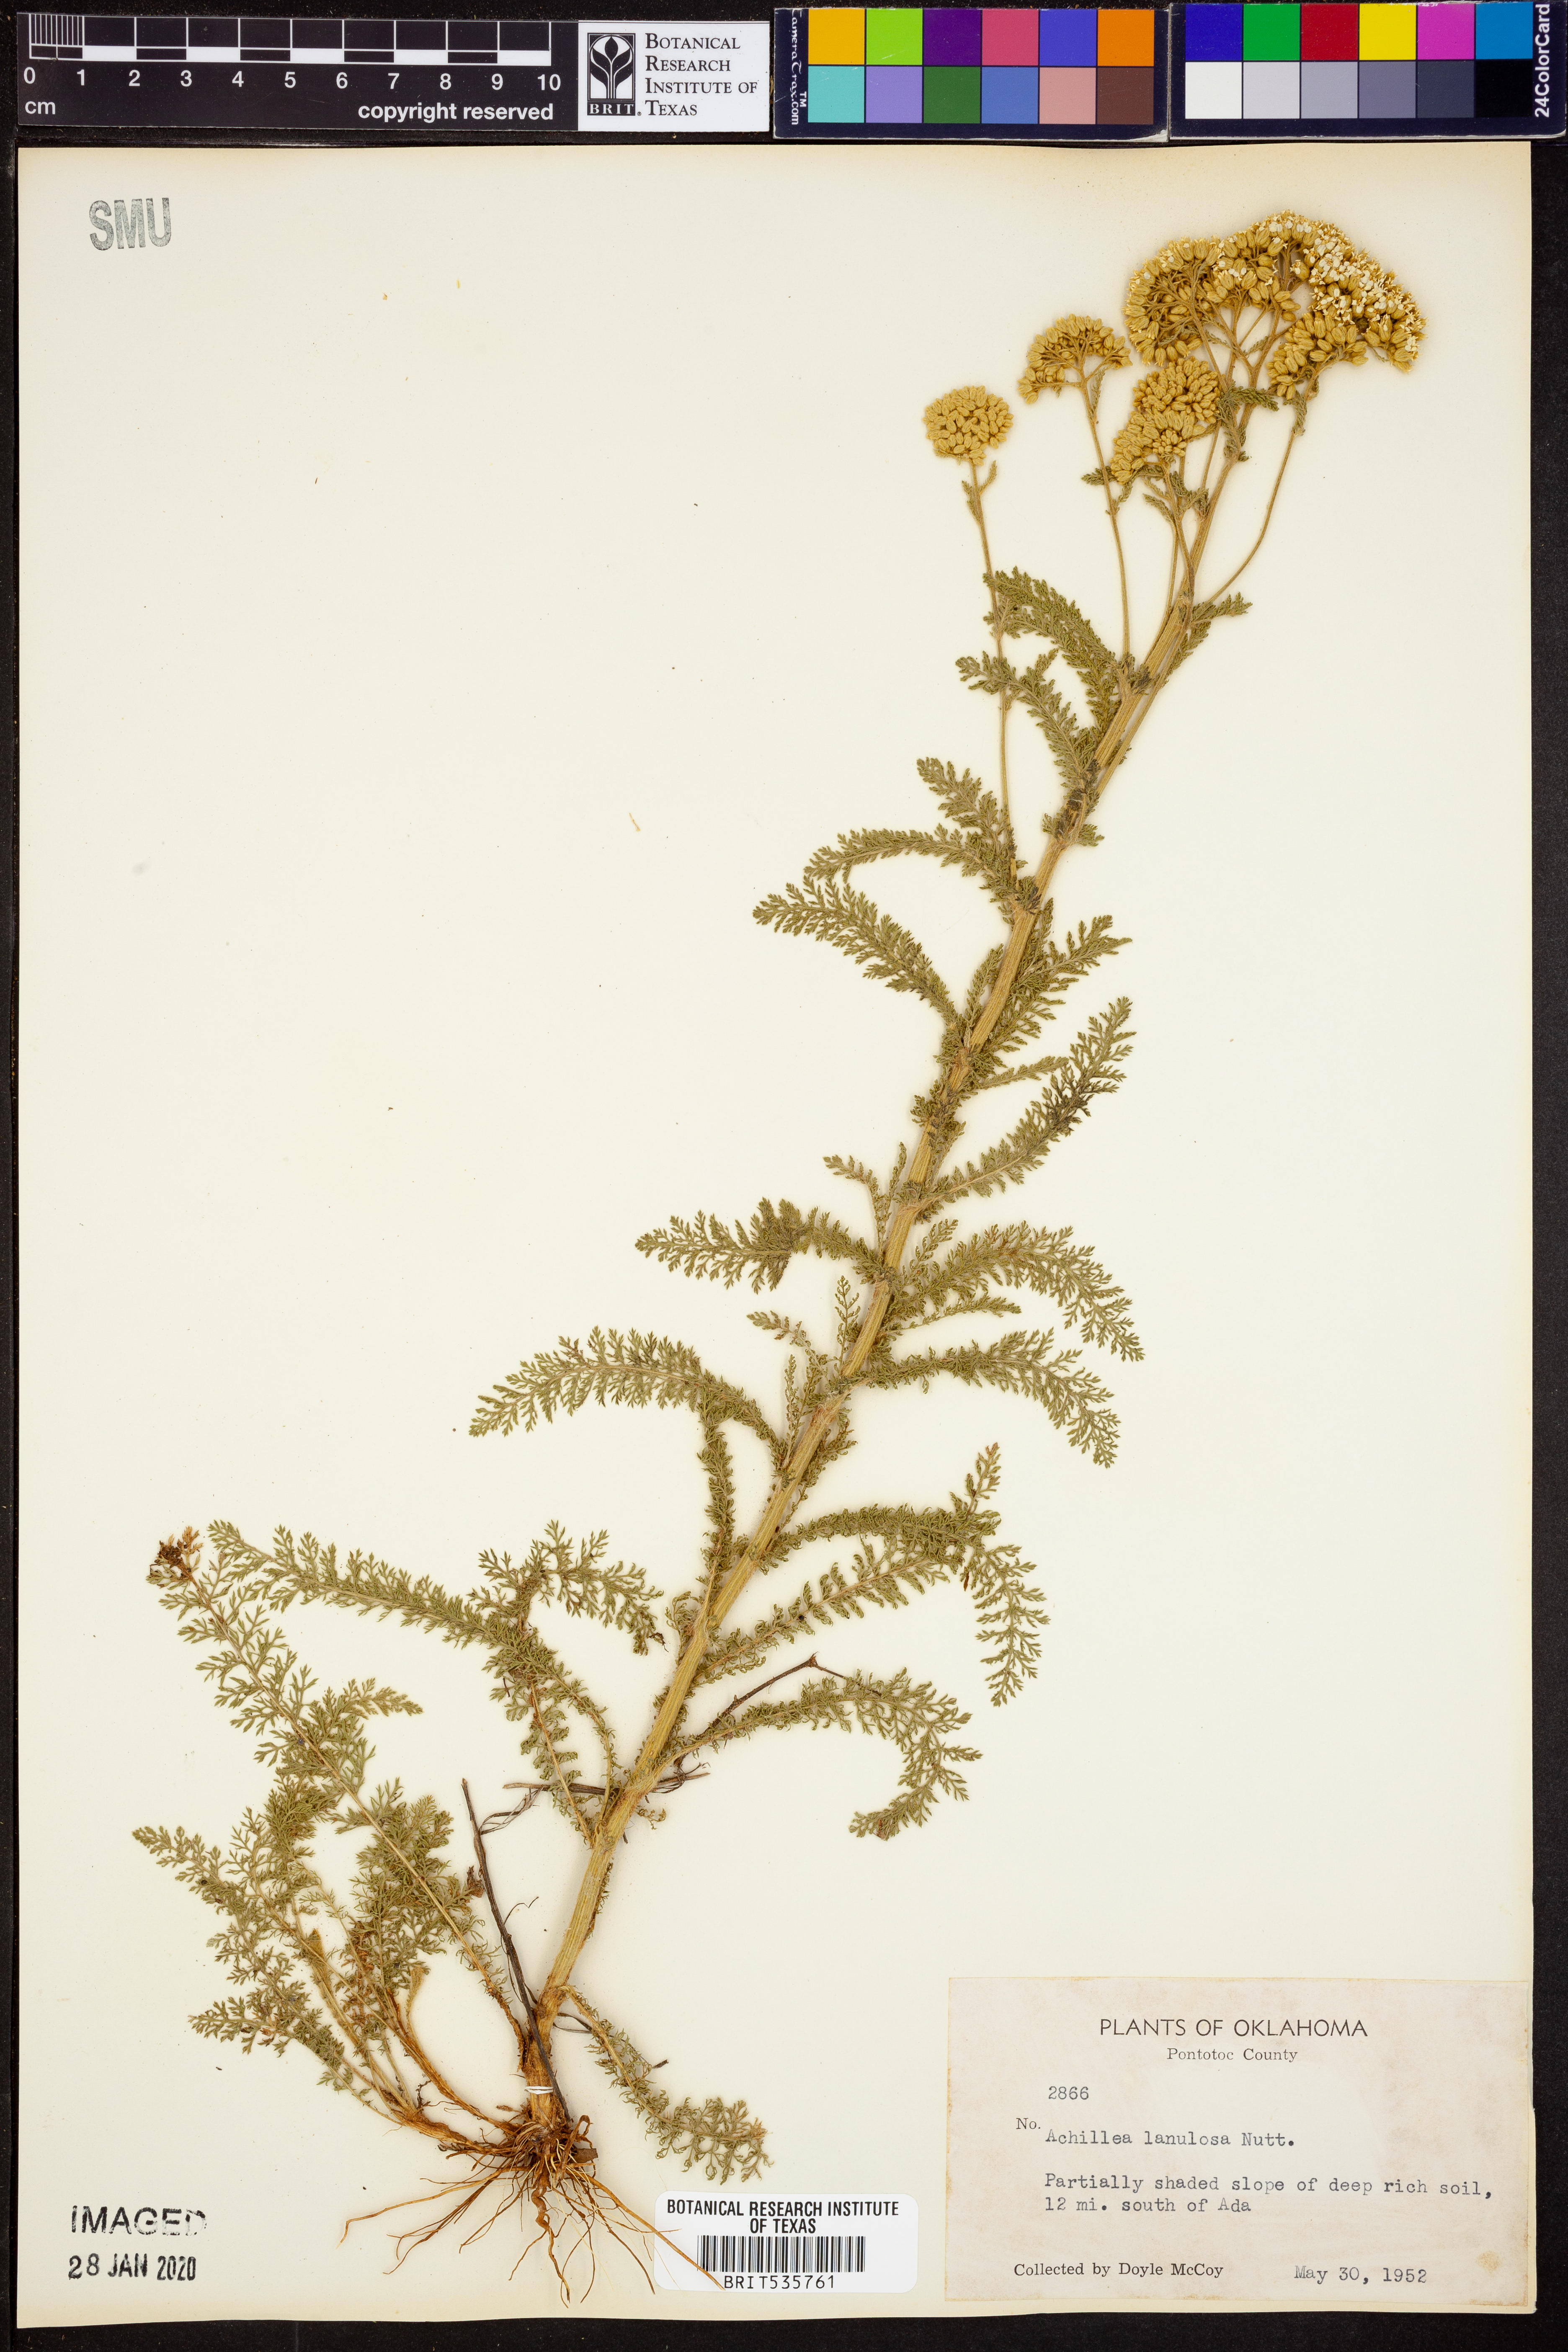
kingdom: Plantae
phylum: Tracheophyta
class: Magnoliopsida
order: Asterales
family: Asteraceae
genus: Achillea
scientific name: Achillea millefolium
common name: Yarrow
